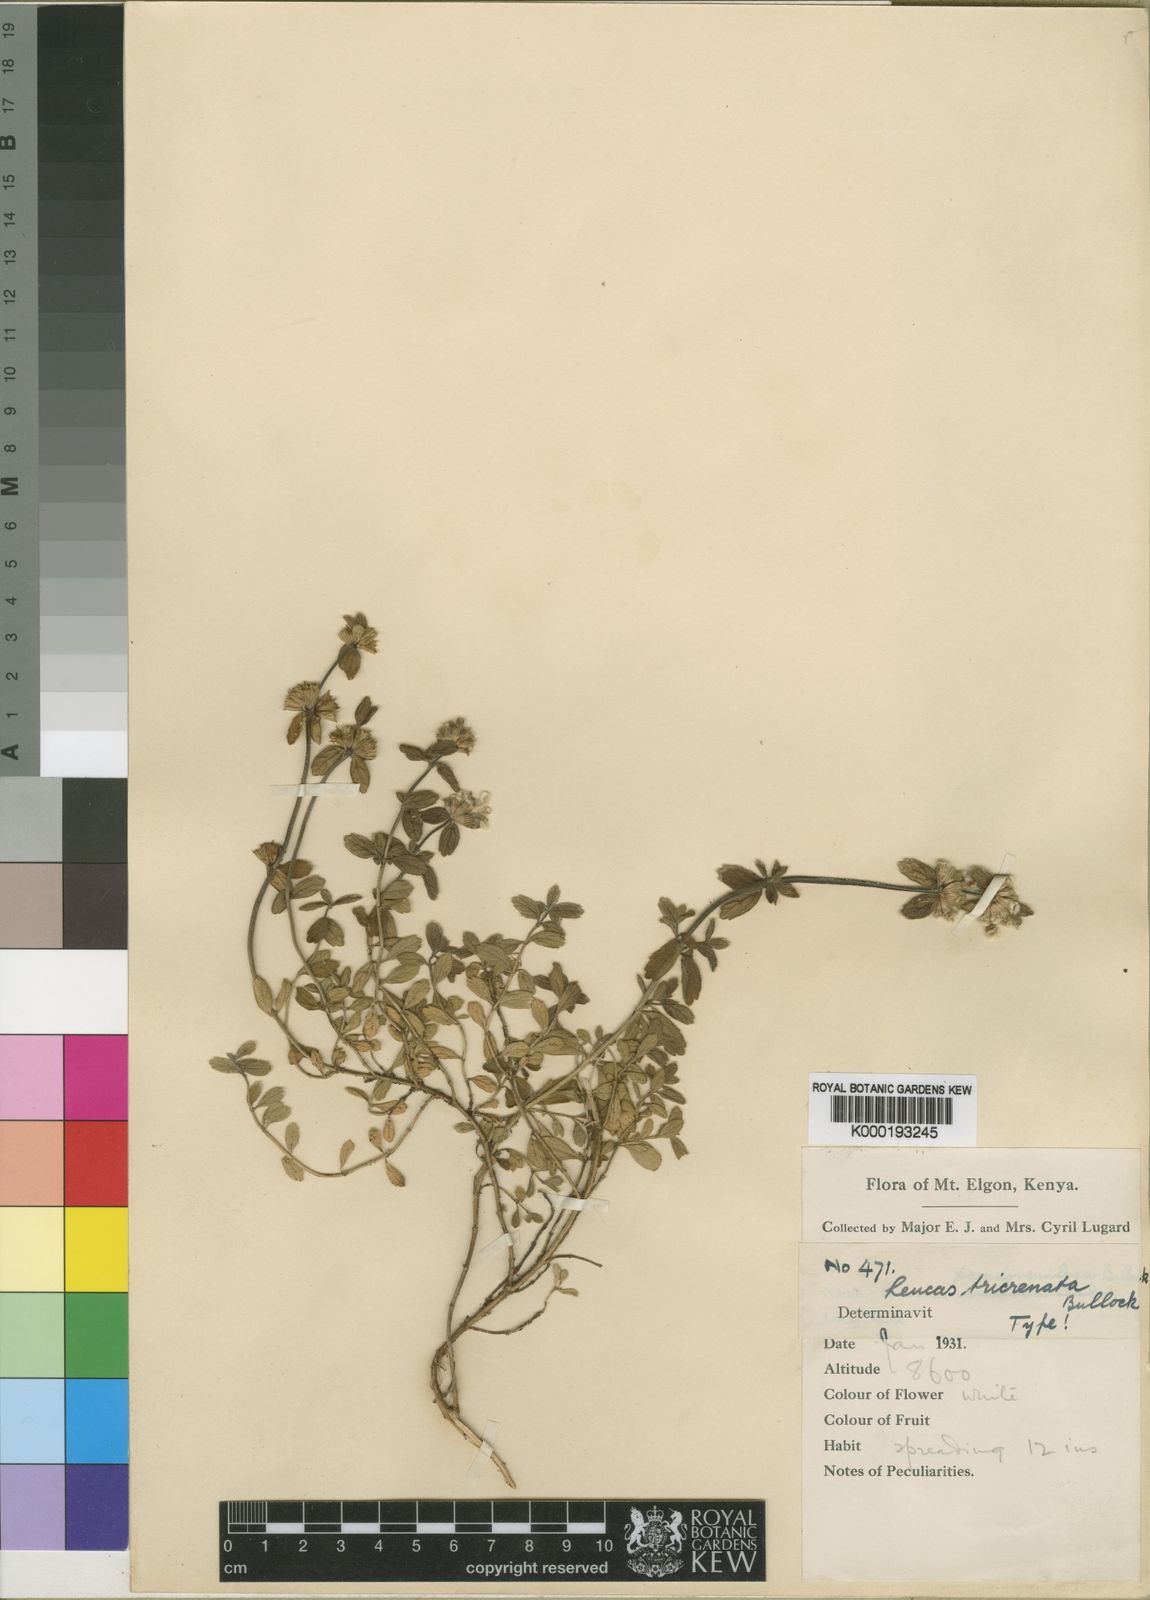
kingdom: Plantae
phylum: Tracheophyta
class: Magnoliopsida
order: Lamiales
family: Lamiaceae
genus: Leucas
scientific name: Leucas masaiensis
